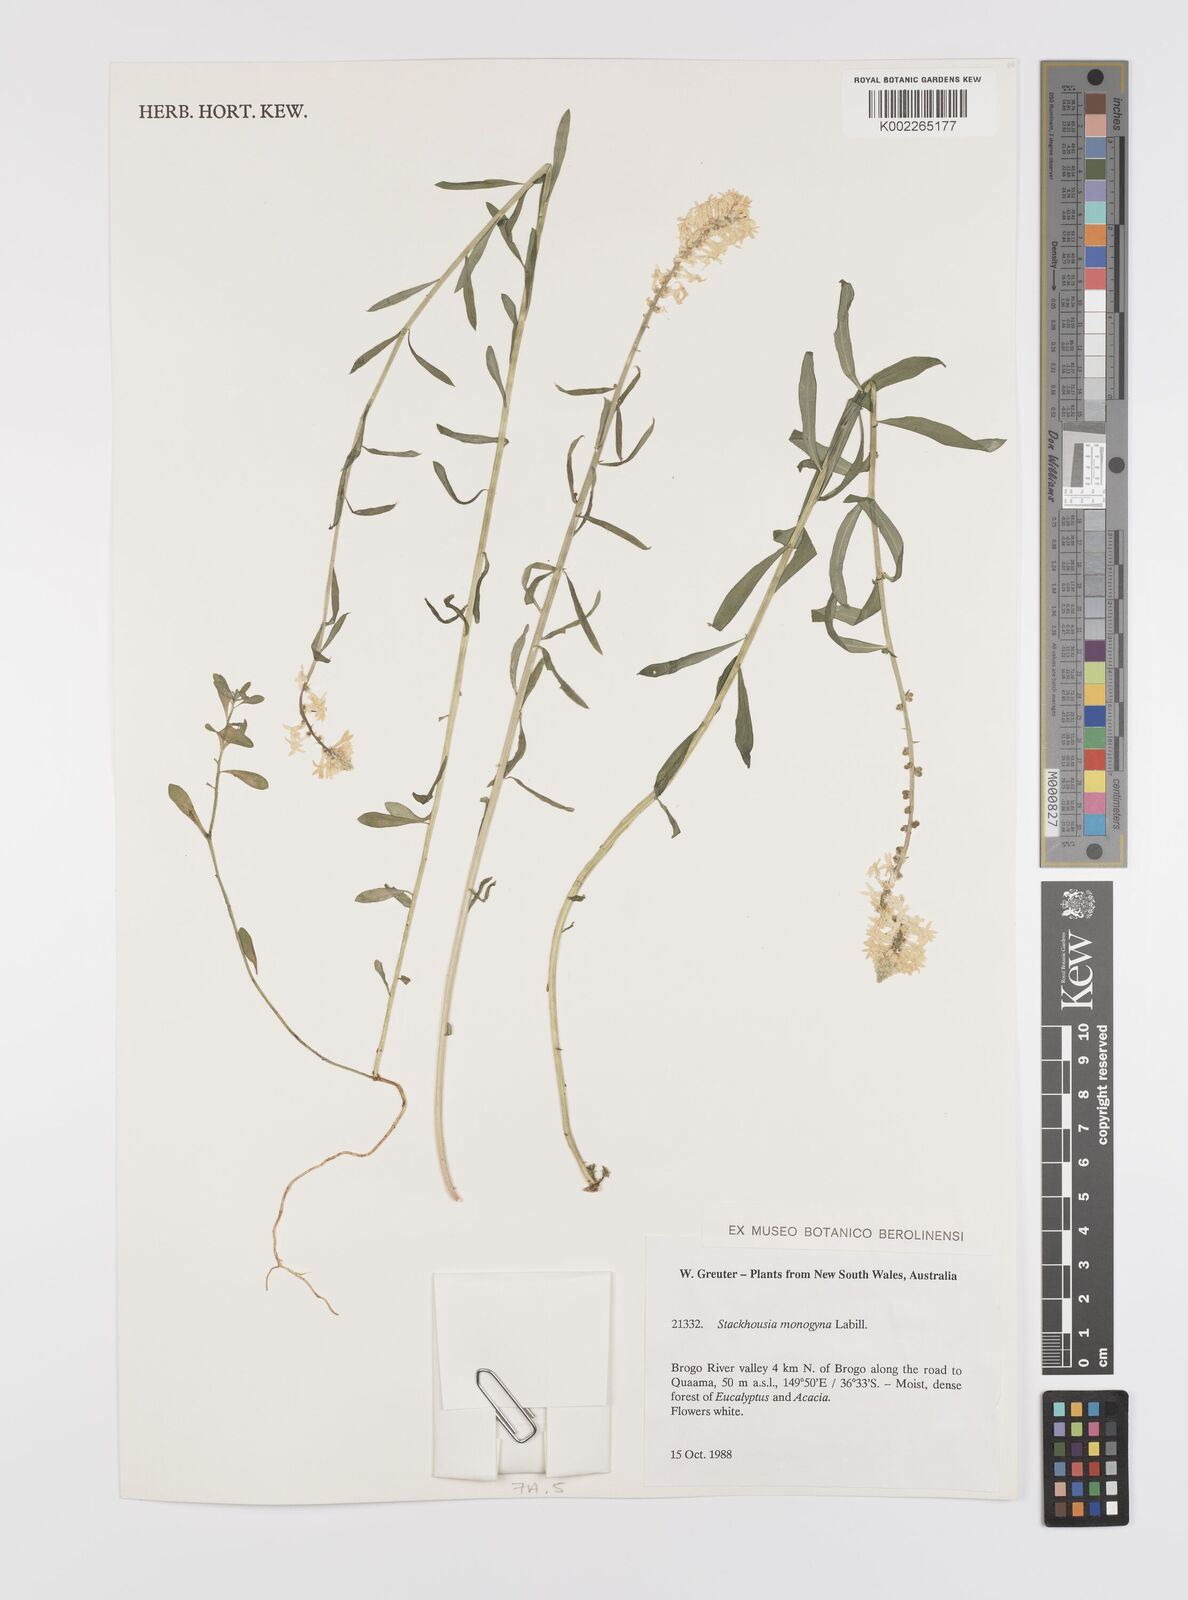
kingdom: Plantae
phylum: Tracheophyta
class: Magnoliopsida
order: Celastrales
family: Celastraceae
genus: Stackhousia
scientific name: Stackhousia monogyna
